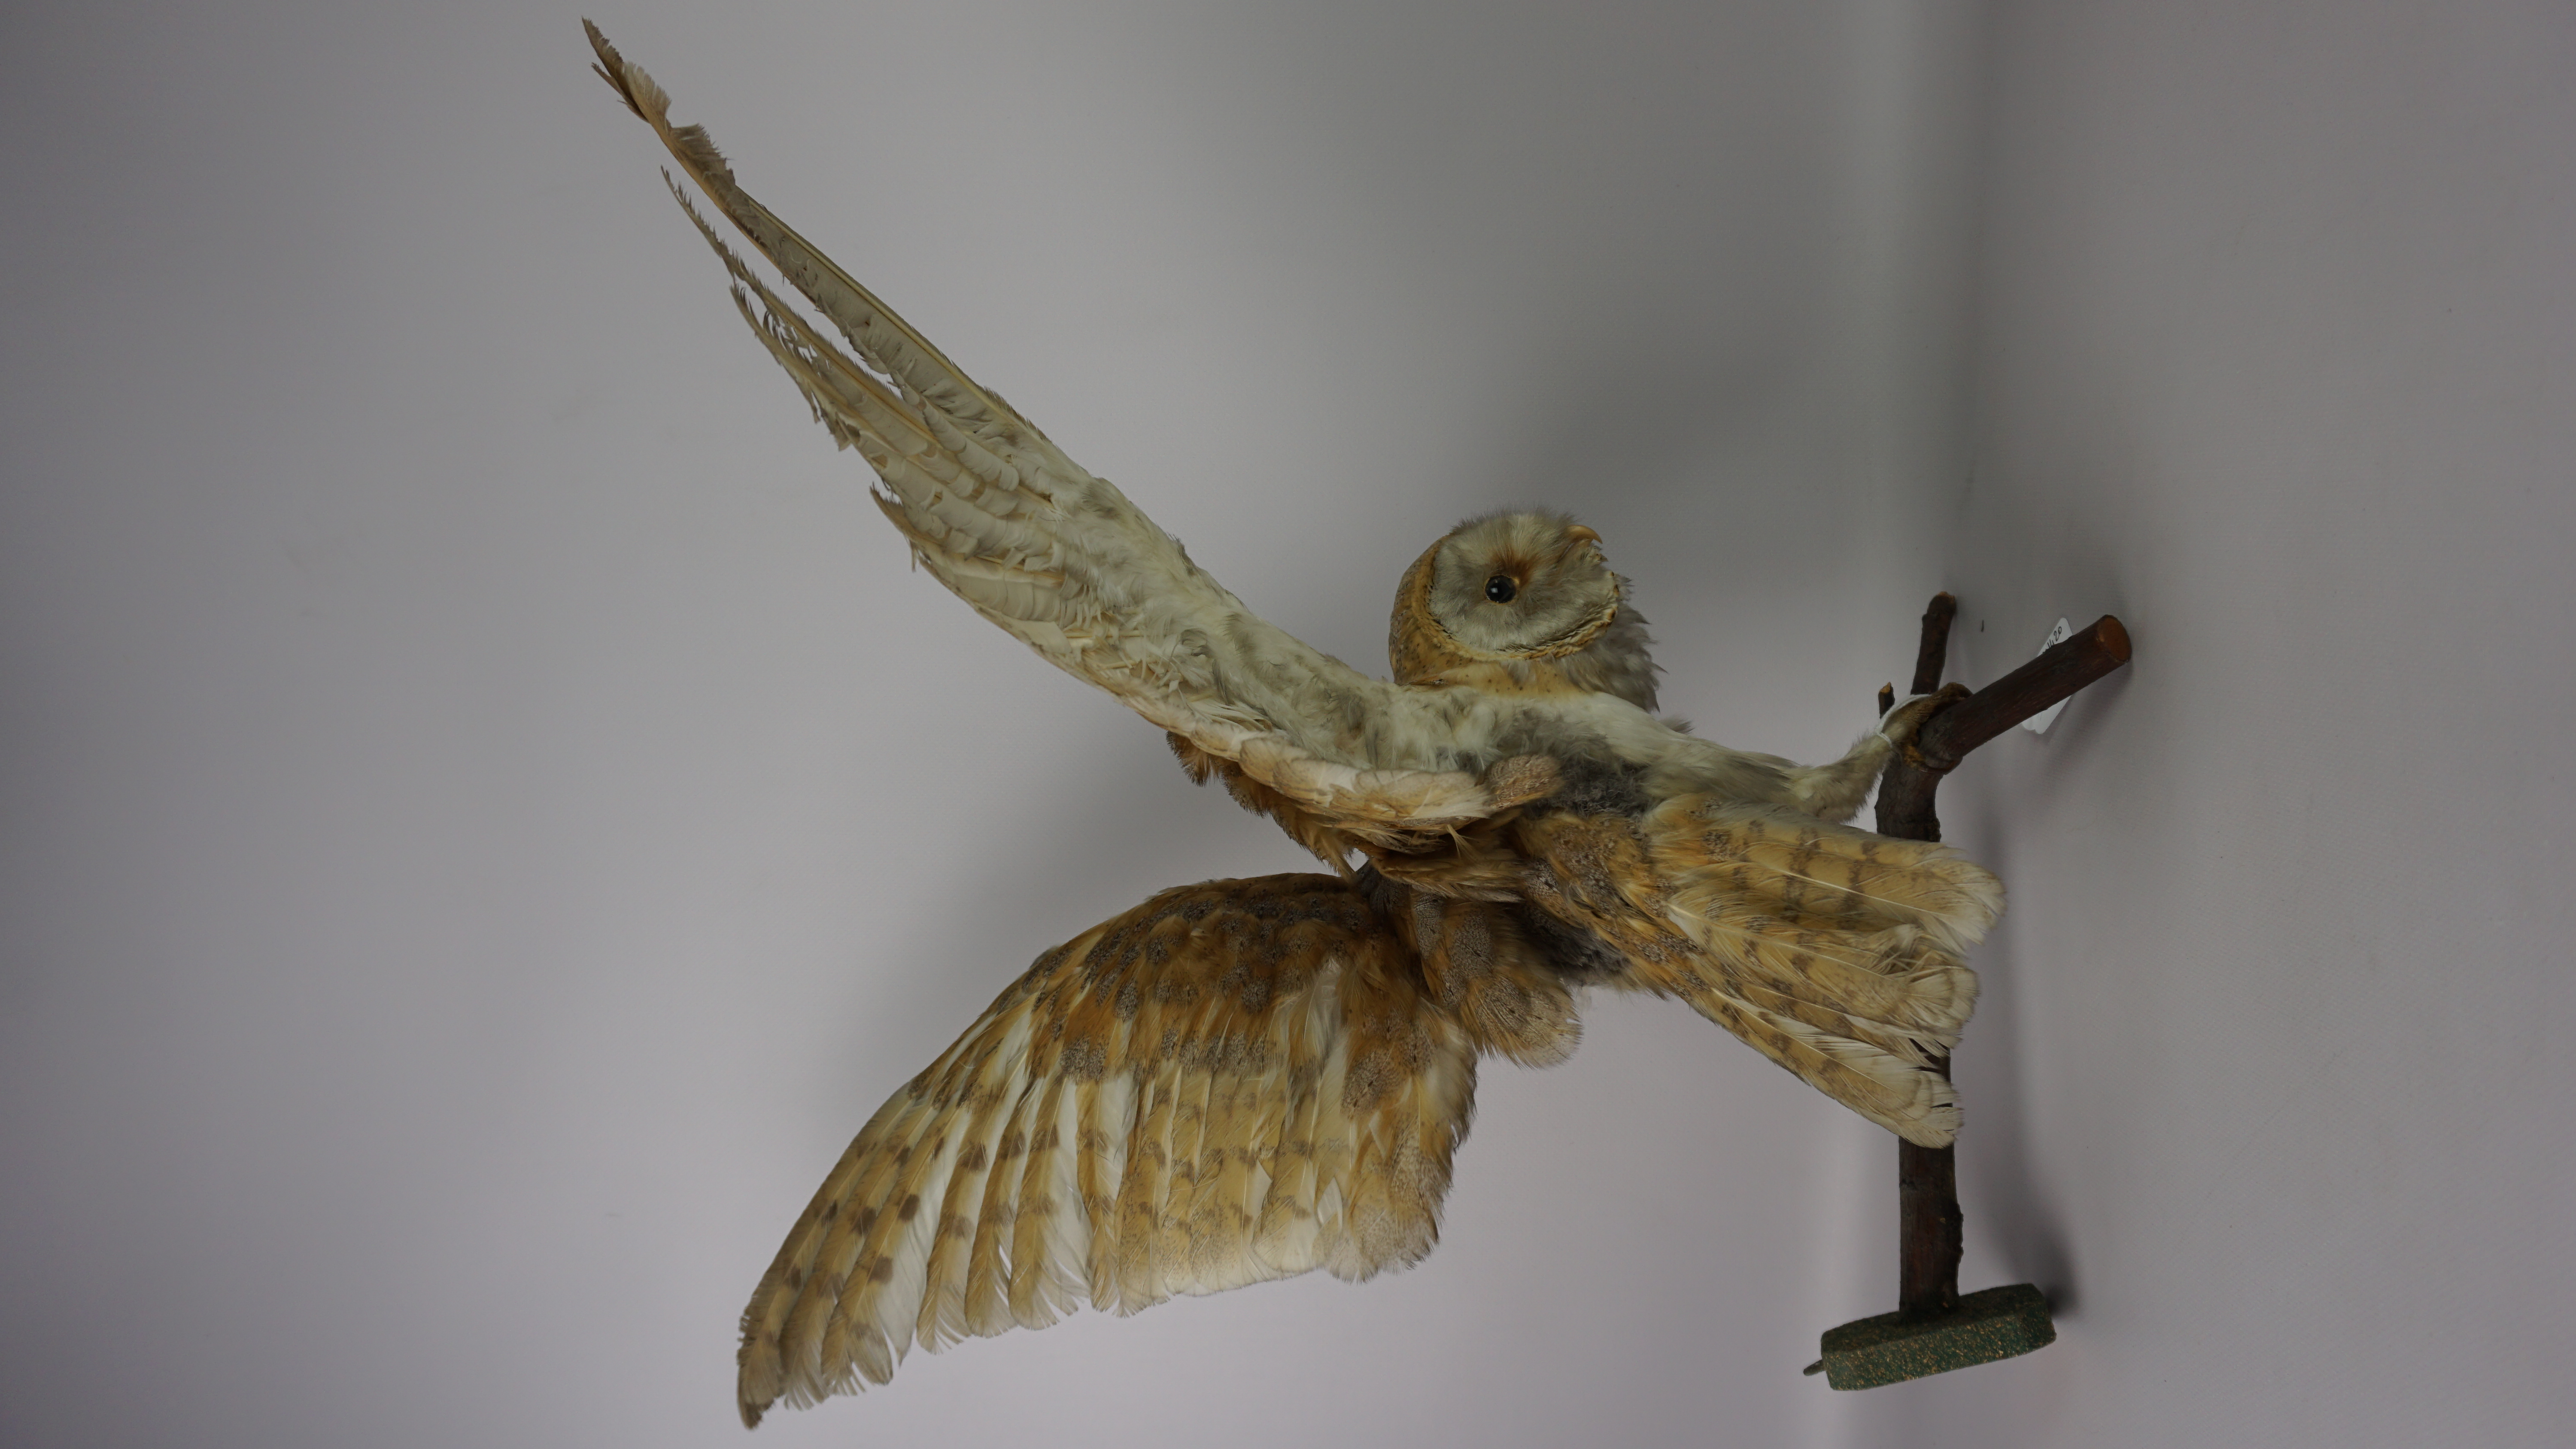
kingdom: Animalia
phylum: Chordata
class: Aves
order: Strigiformes
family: Tytonidae
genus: Tyto
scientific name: Tyto alba
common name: Barn owl
